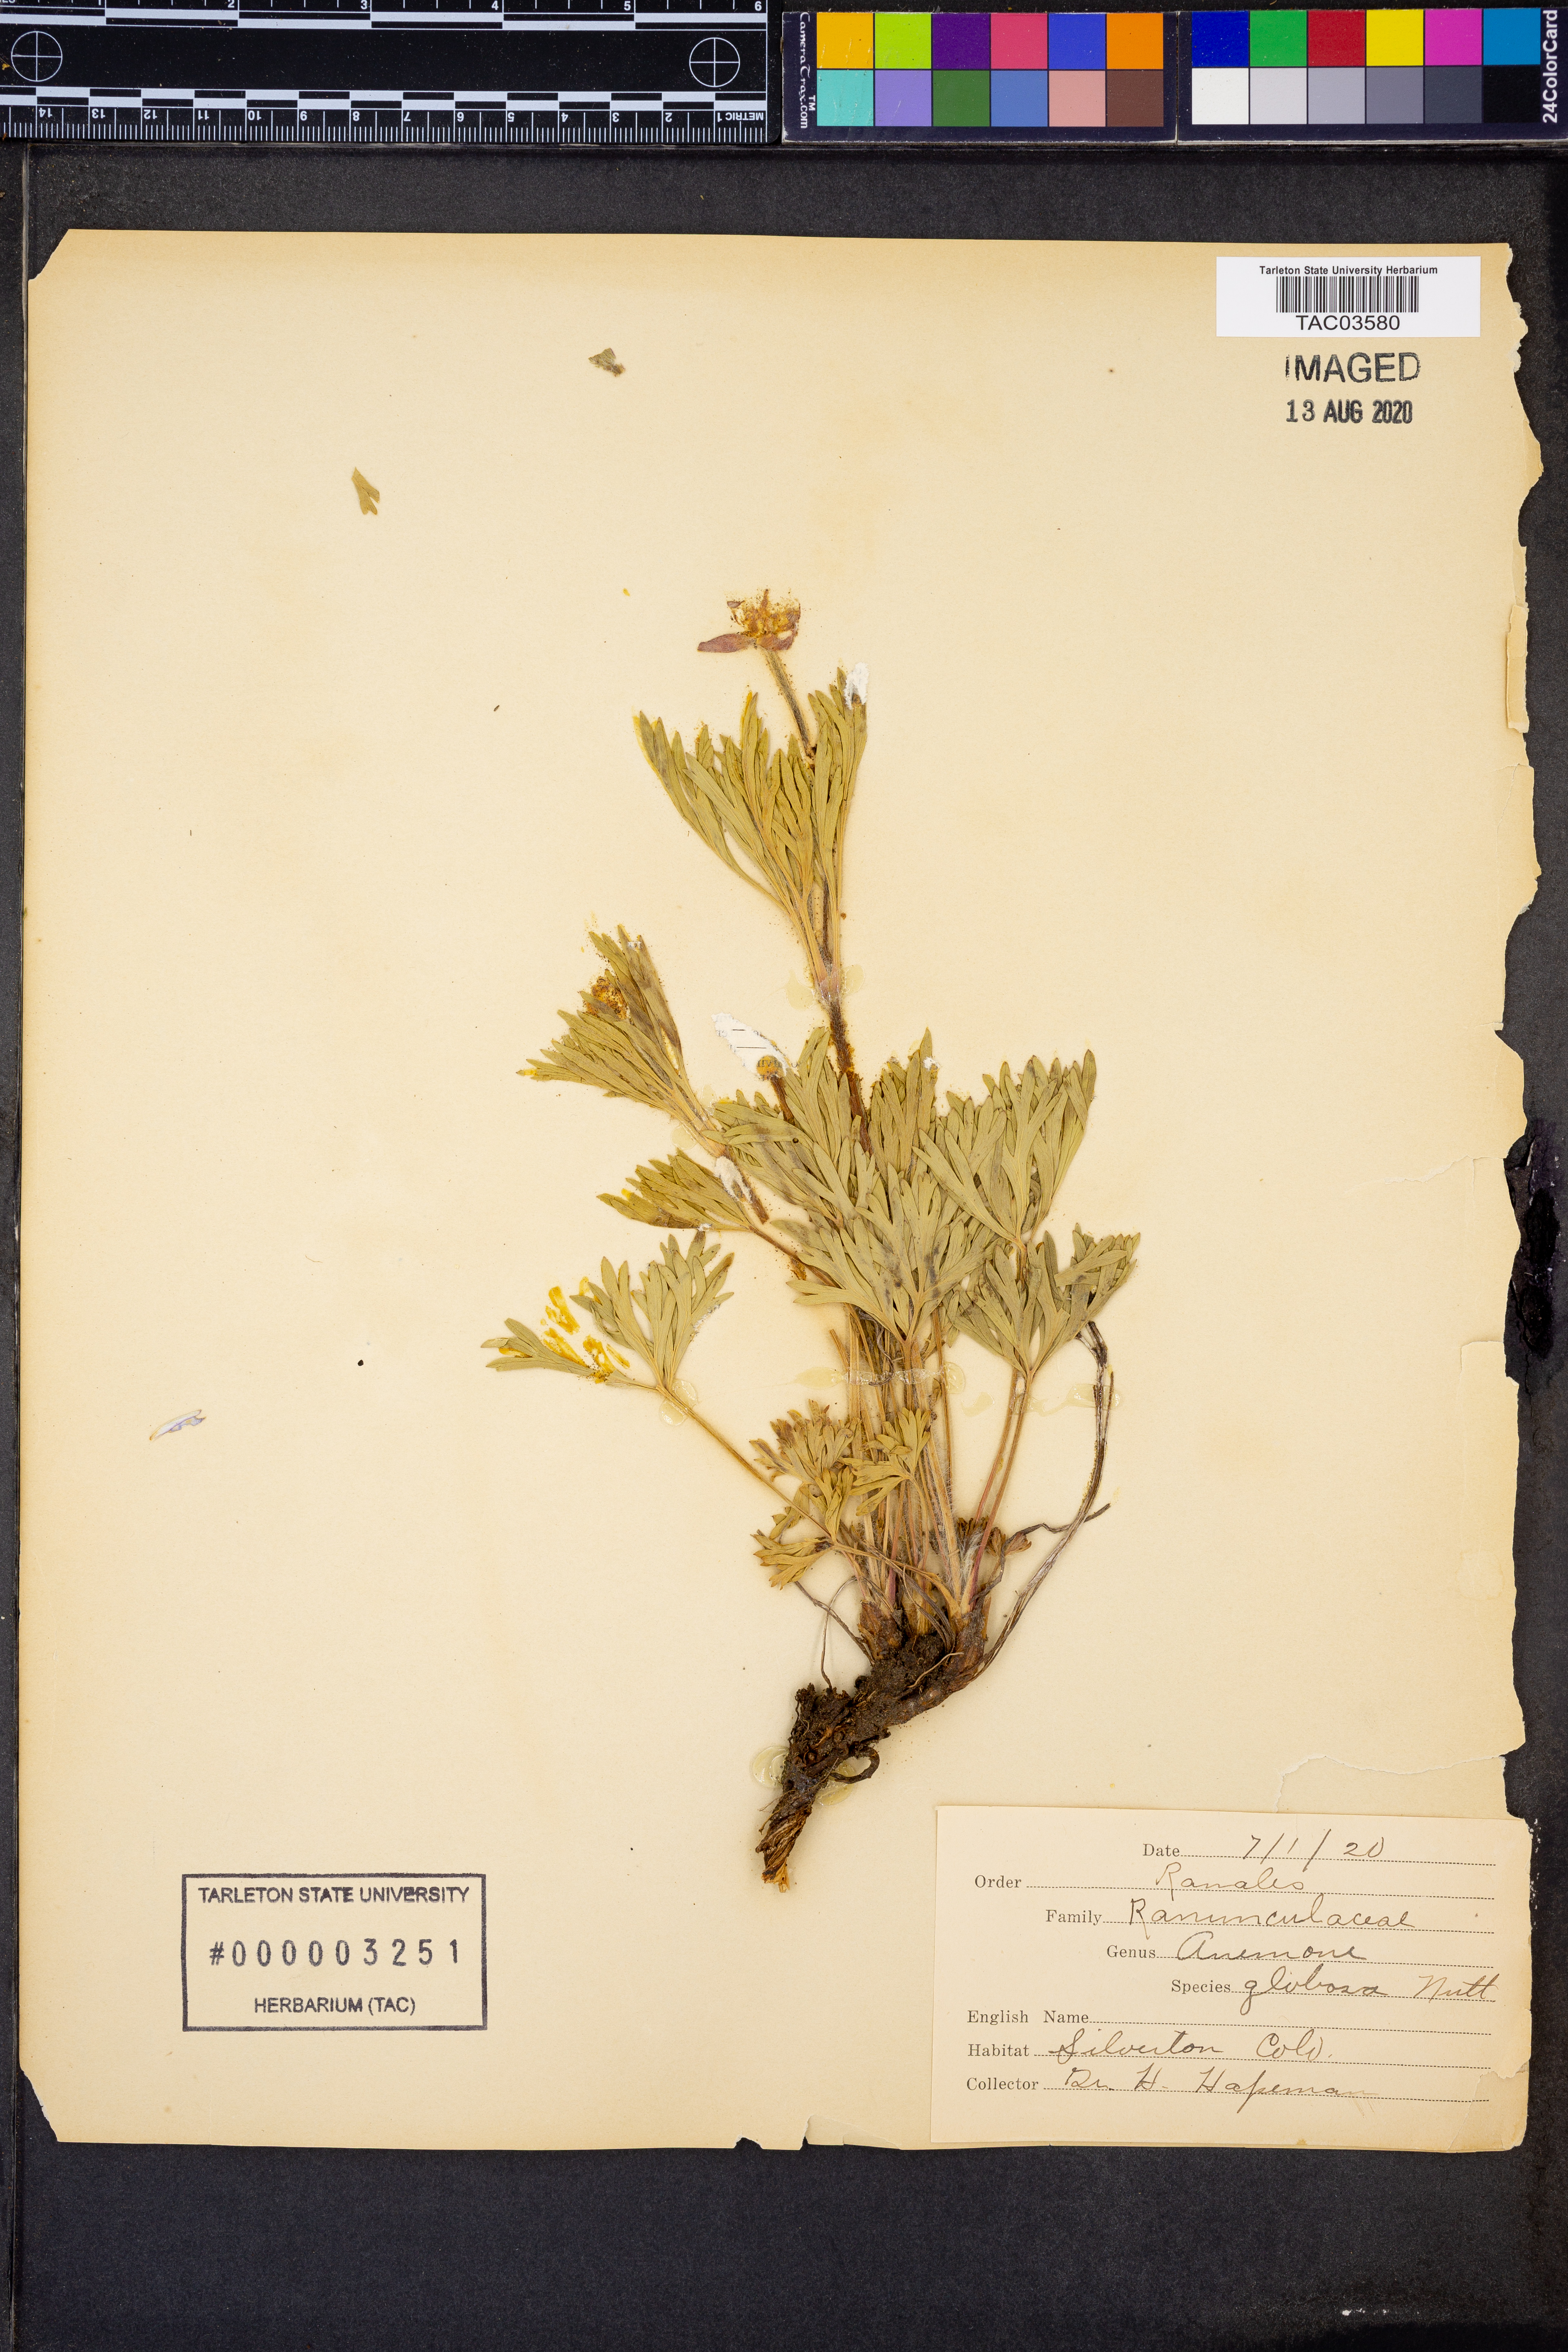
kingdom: Plantae
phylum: Tracheophyta
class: Magnoliopsida
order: Ranunculales
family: Ranunculaceae
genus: Anemone
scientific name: Anemone multifida
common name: Bird's-foot anemone
